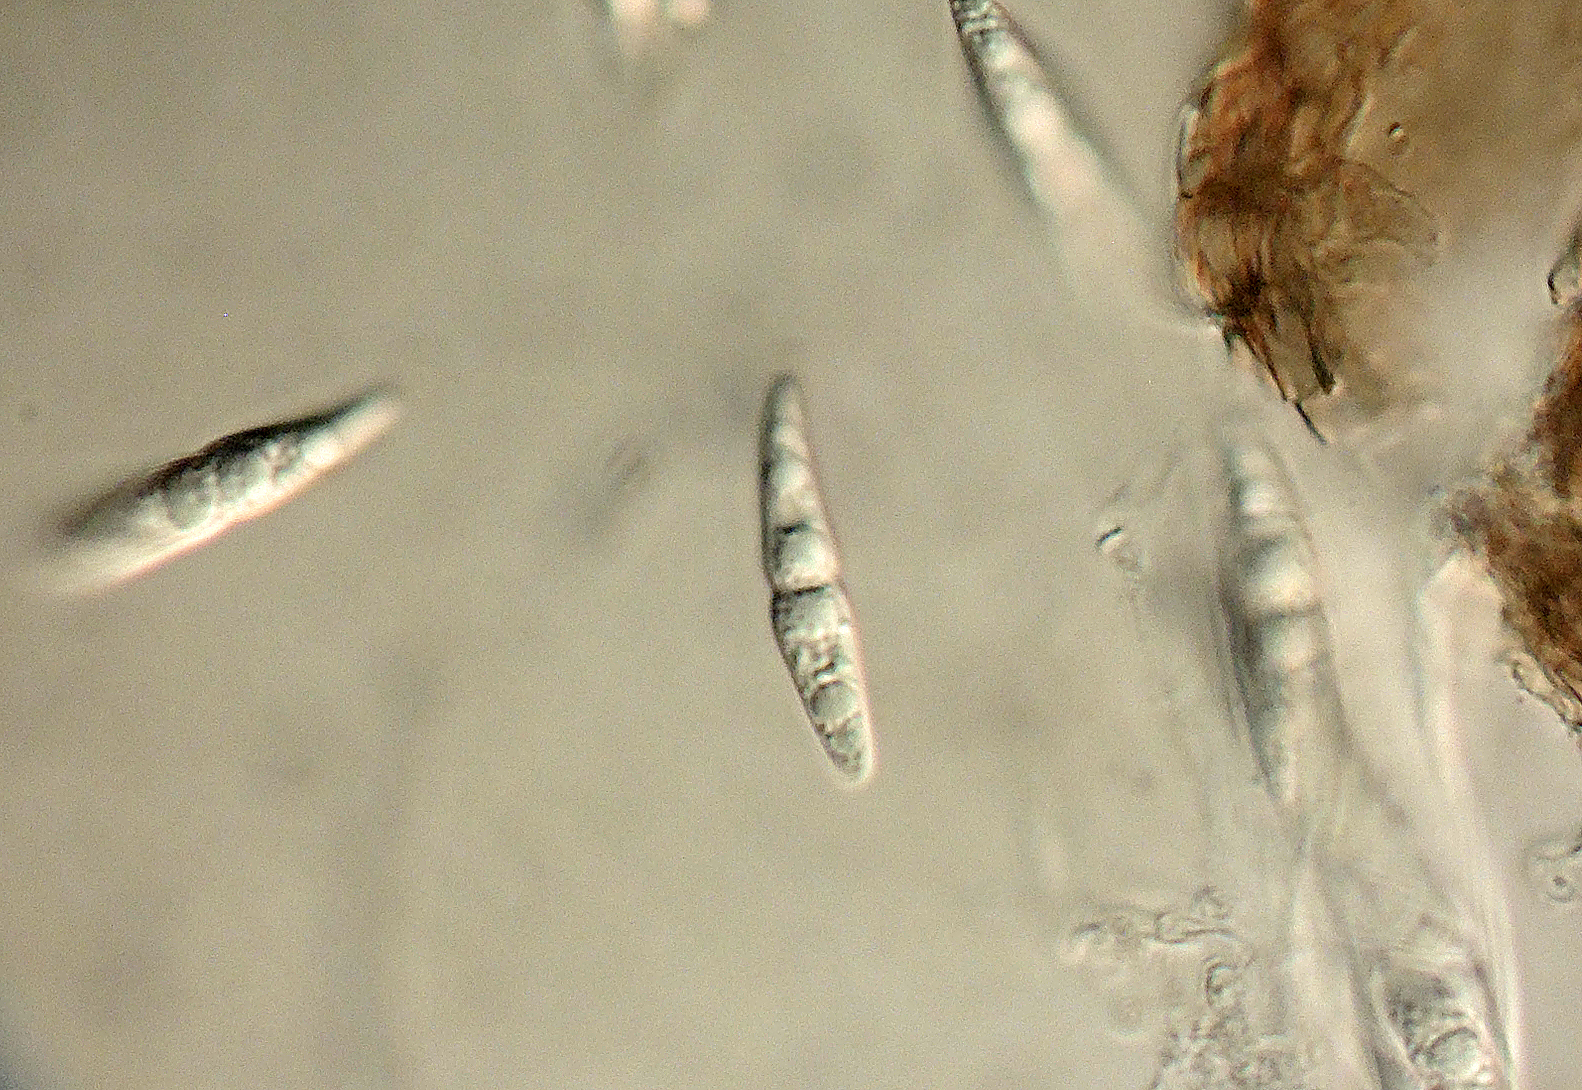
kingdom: Fungi
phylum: Ascomycota
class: Dothideomycetes
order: Pleosporales
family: Leptosphaeriaceae
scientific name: Leptosphaeriaceae
